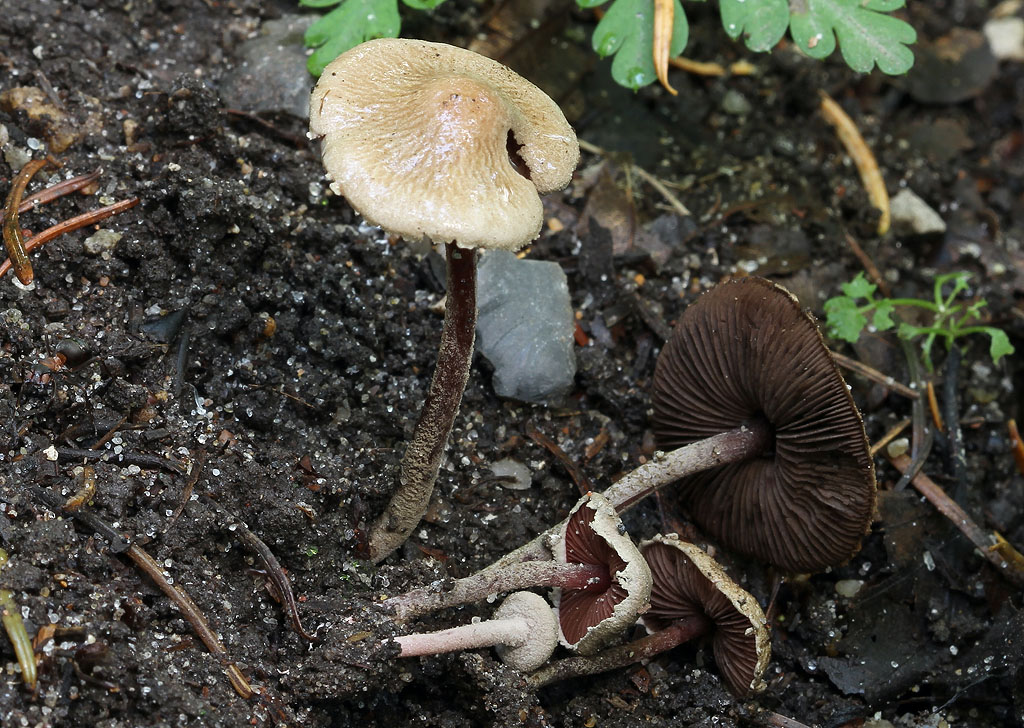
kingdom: Fungi
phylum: Basidiomycota
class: Agaricomycetes
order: Agaricales
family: Agaricaceae
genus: Melanophyllum
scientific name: Melanophyllum haematospermum
